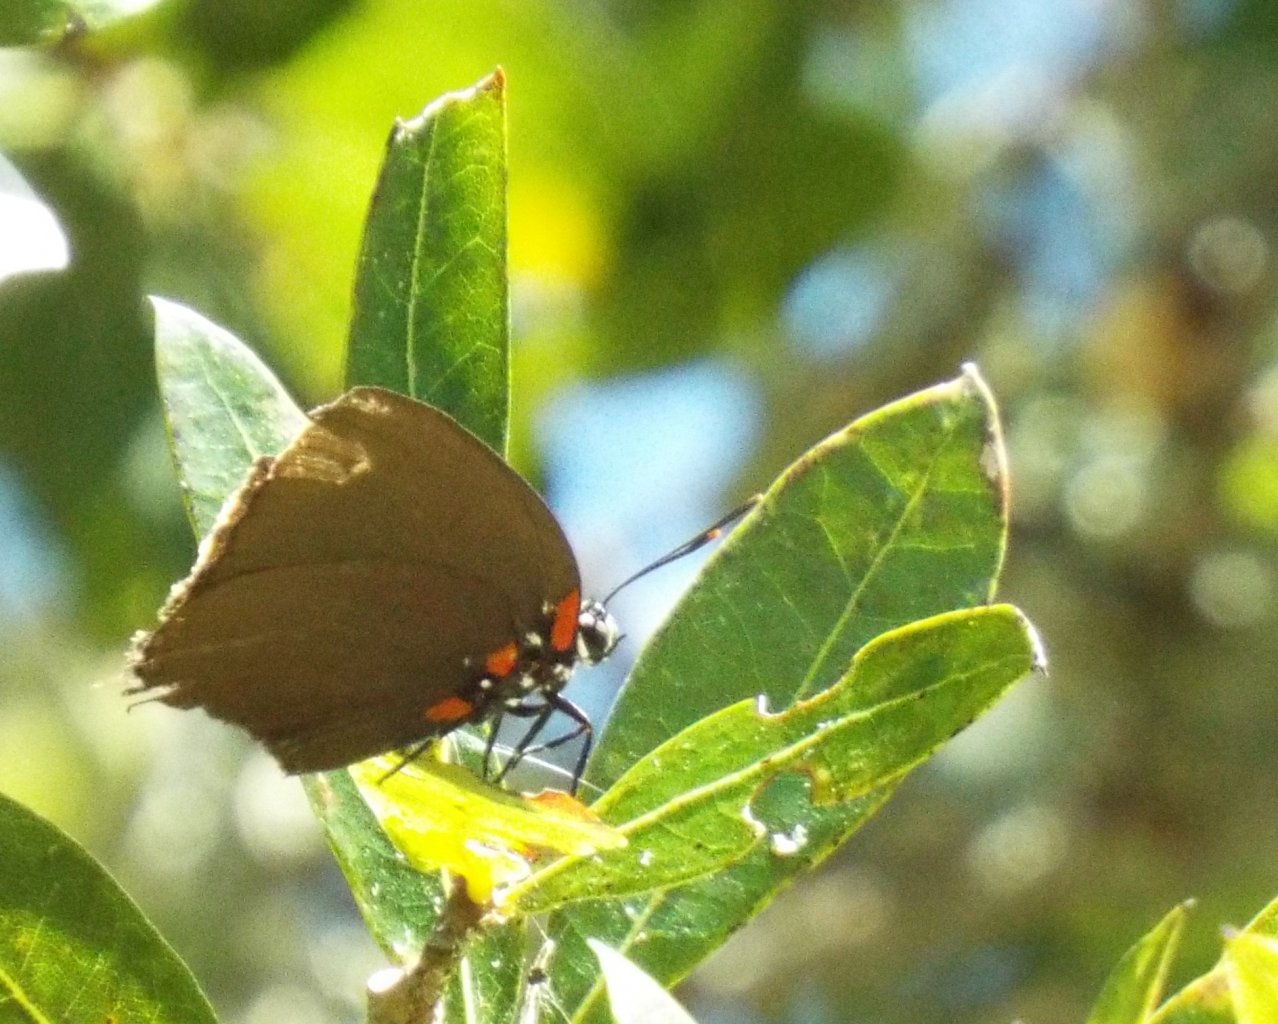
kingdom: Animalia
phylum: Arthropoda
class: Insecta
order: Lepidoptera
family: Lycaenidae
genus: Atlides
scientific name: Atlides halesus
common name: Great Purple Hairstreak
